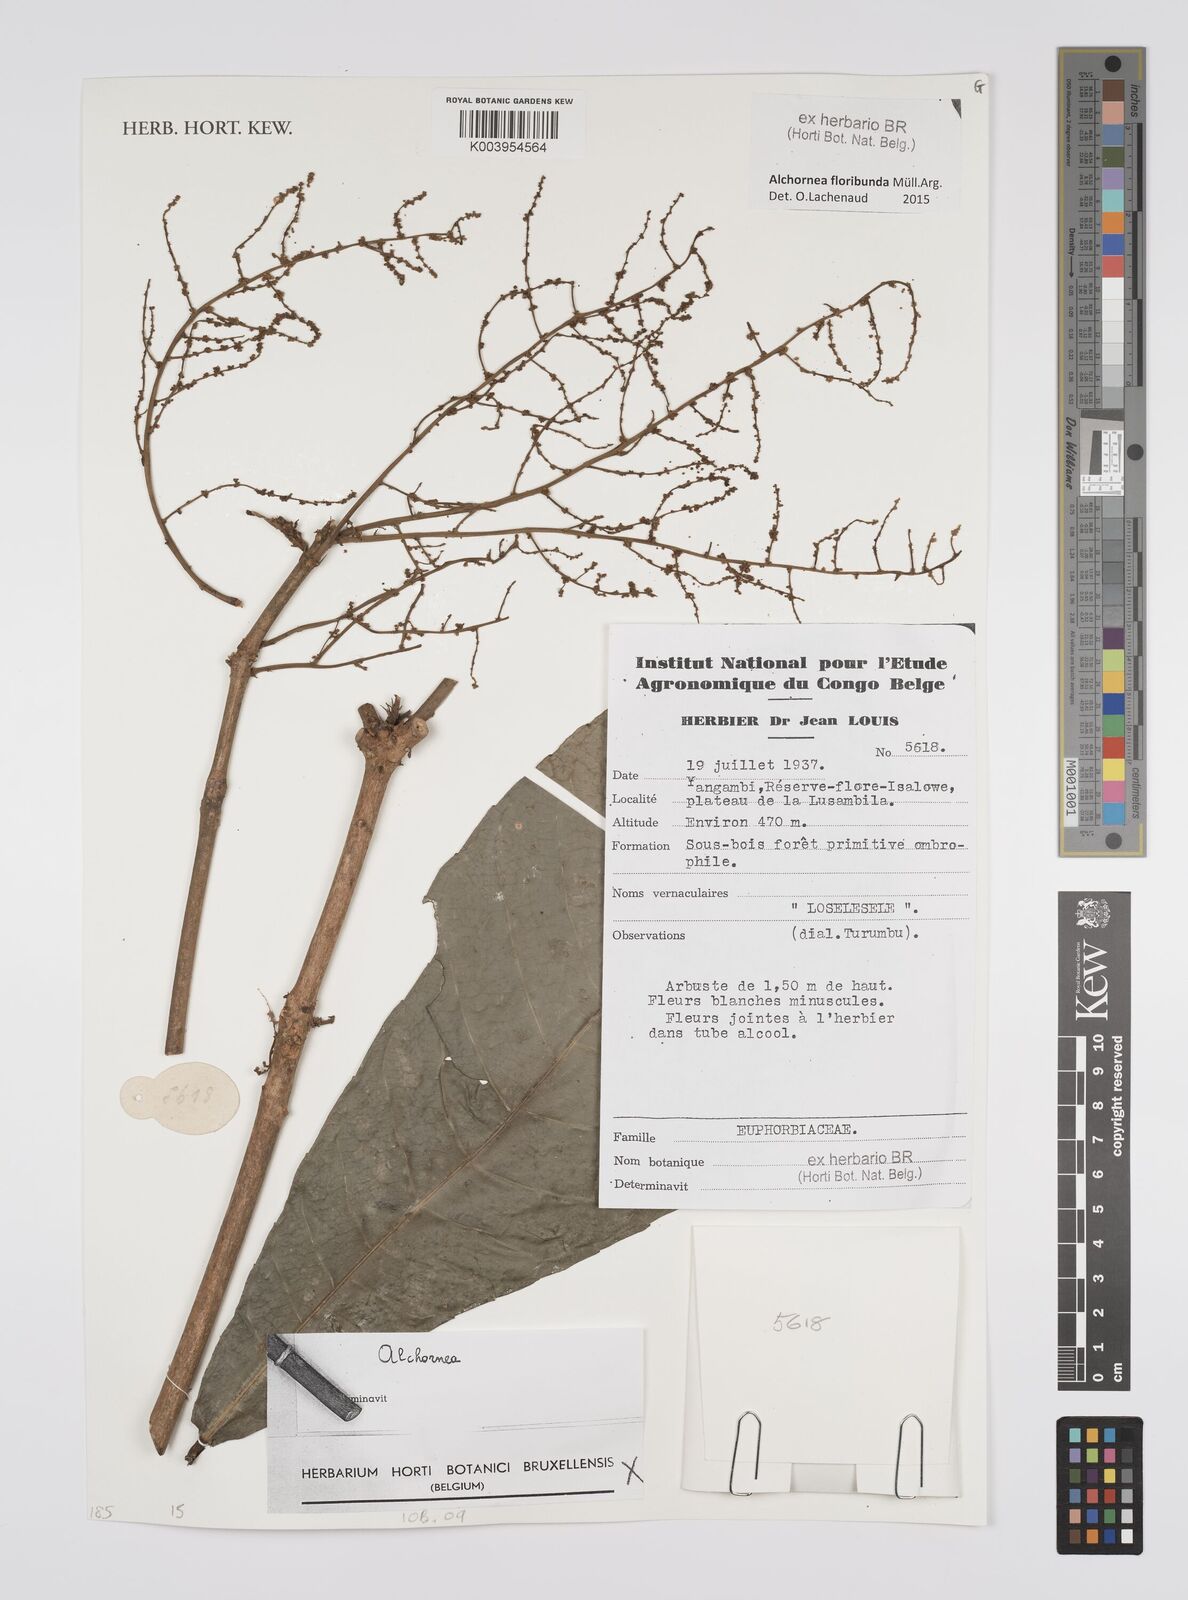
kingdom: Plantae
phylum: Tracheophyta
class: Magnoliopsida
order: Malpighiales
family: Euphorbiaceae
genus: Alchornea
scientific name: Alchornea floribunda
